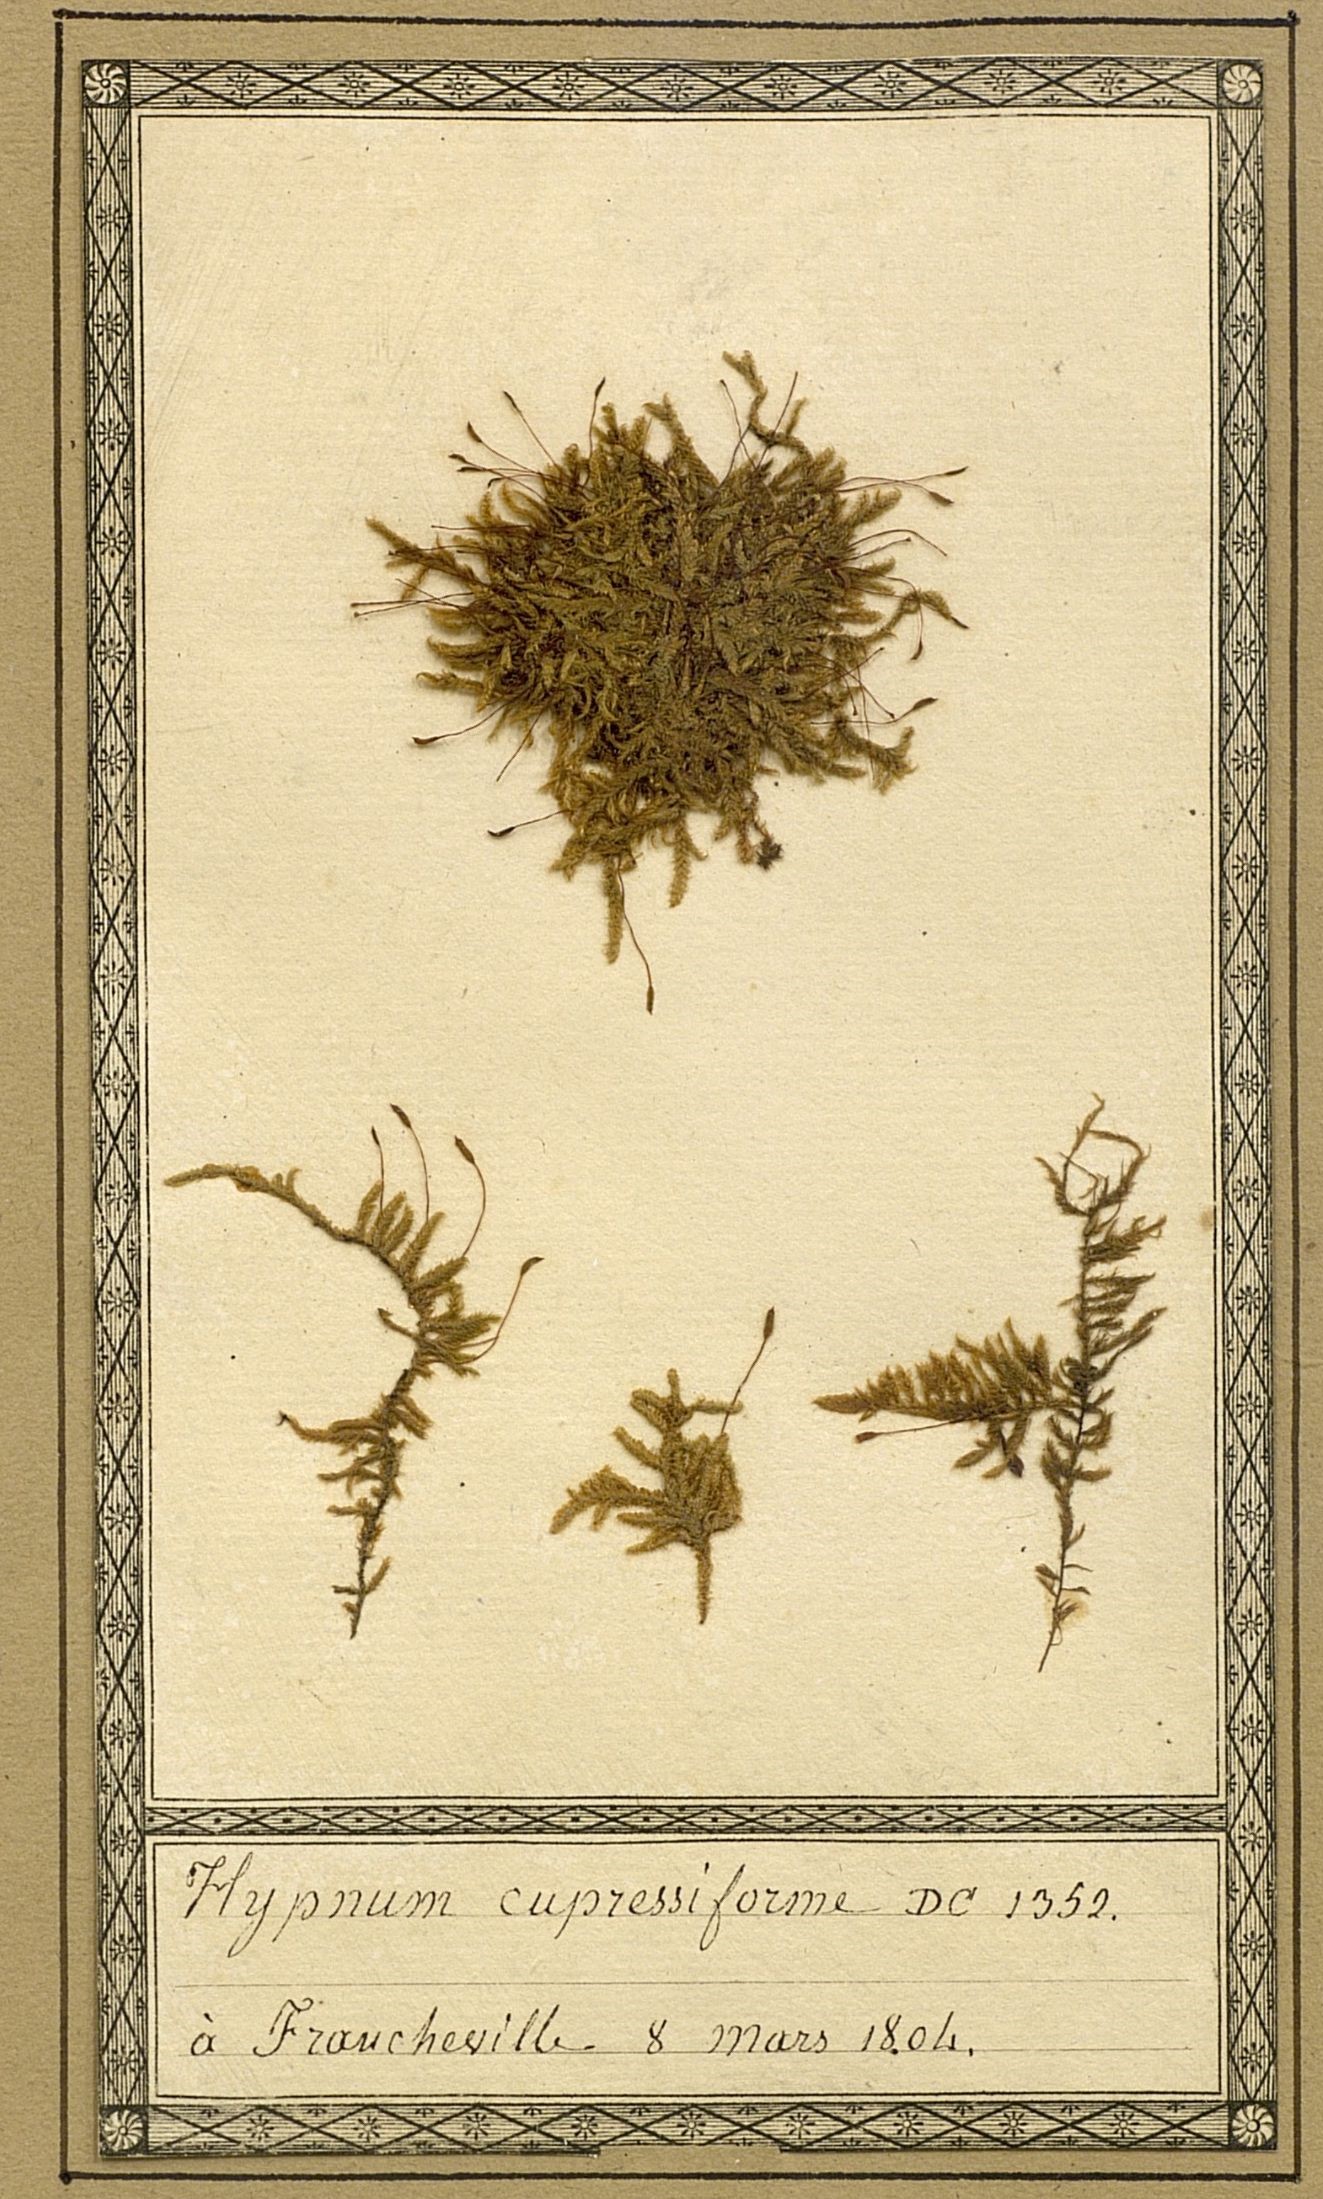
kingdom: Plantae
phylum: Bryophyta
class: Bryopsida
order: Hypnales
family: Hypnaceae
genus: Hypnum
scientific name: Hypnum cupressiforme
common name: Cypress-leaved plait-moss
